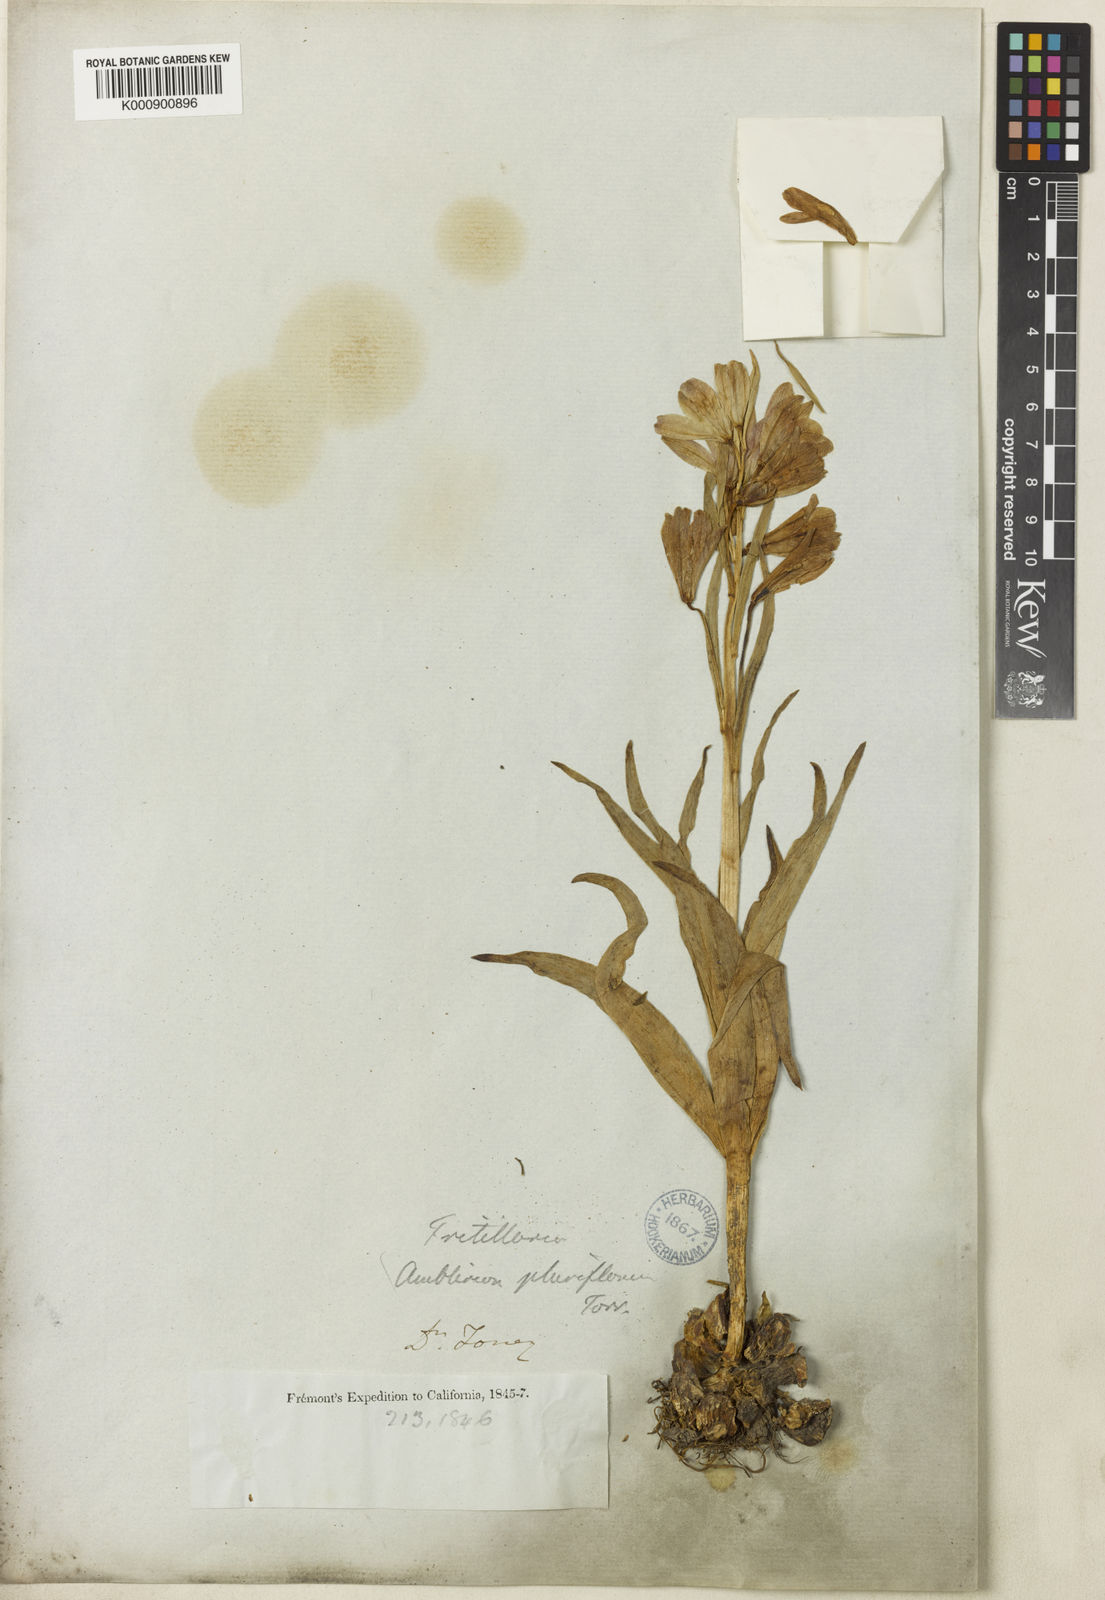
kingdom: Plantae
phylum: Tracheophyta
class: Liliopsida
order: Liliales
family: Liliaceae
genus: Fritillaria
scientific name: Fritillaria pluriflora
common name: Adobe-lily
